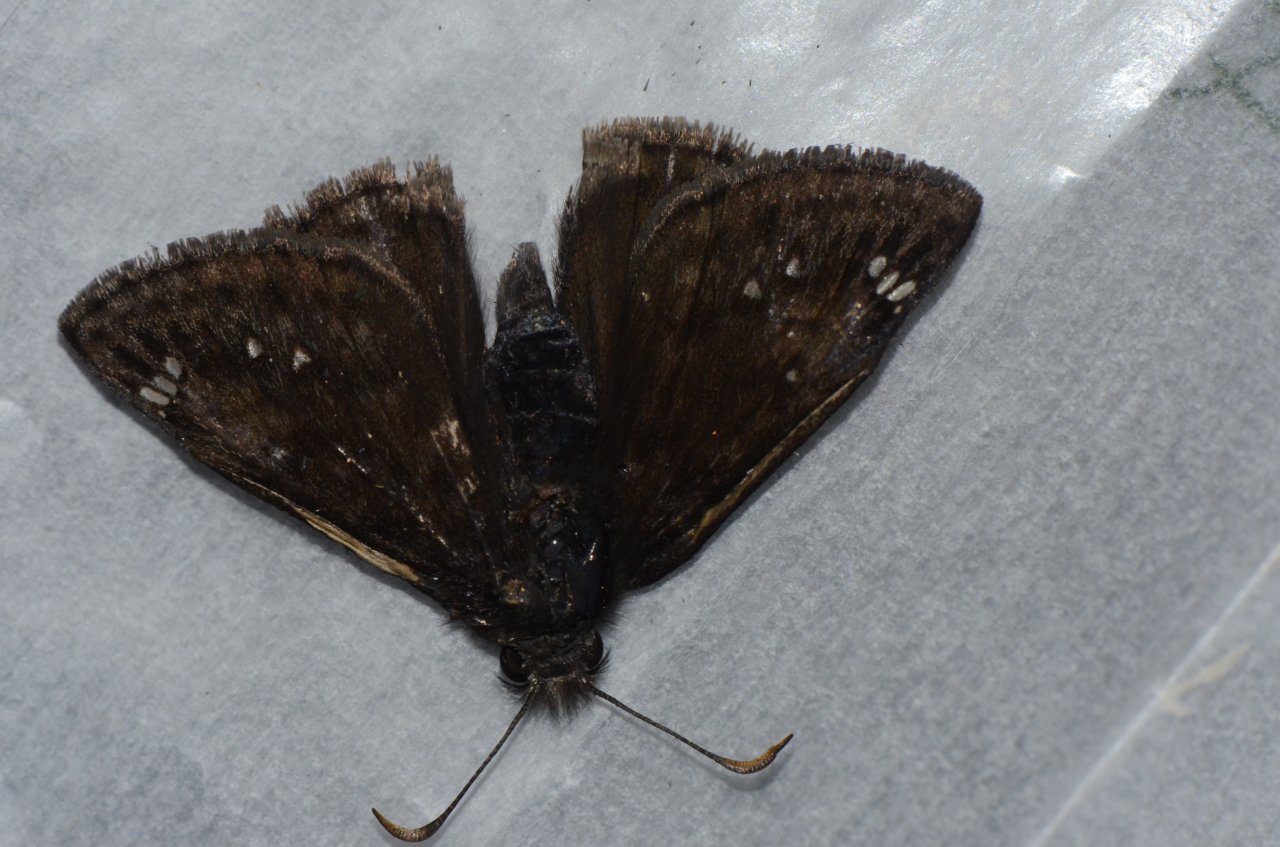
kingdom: Animalia
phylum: Arthropoda
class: Insecta
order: Lepidoptera
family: Hesperiidae
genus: Gesta
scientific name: Gesta
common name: Juvenal's Duskywing
